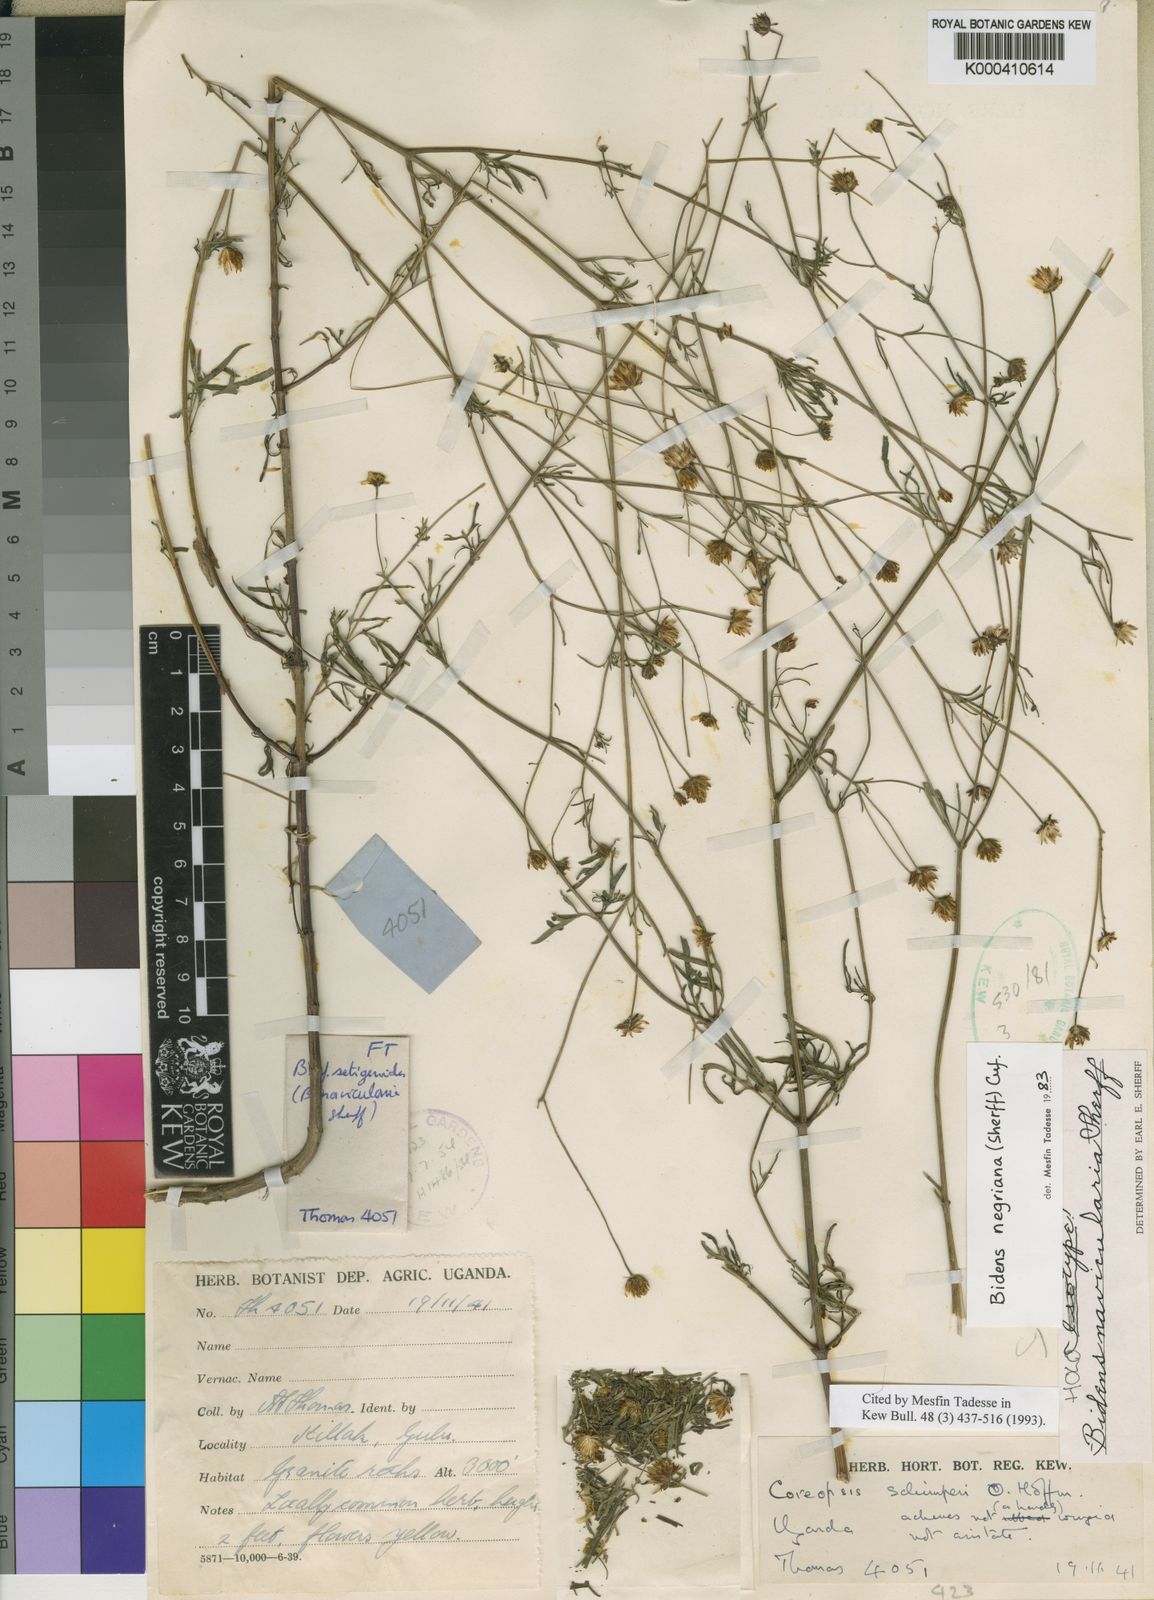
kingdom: Plantae
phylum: Tracheophyta
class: Magnoliopsida
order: Asterales
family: Asteraceae
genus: Bidens
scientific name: Bidens negriana
